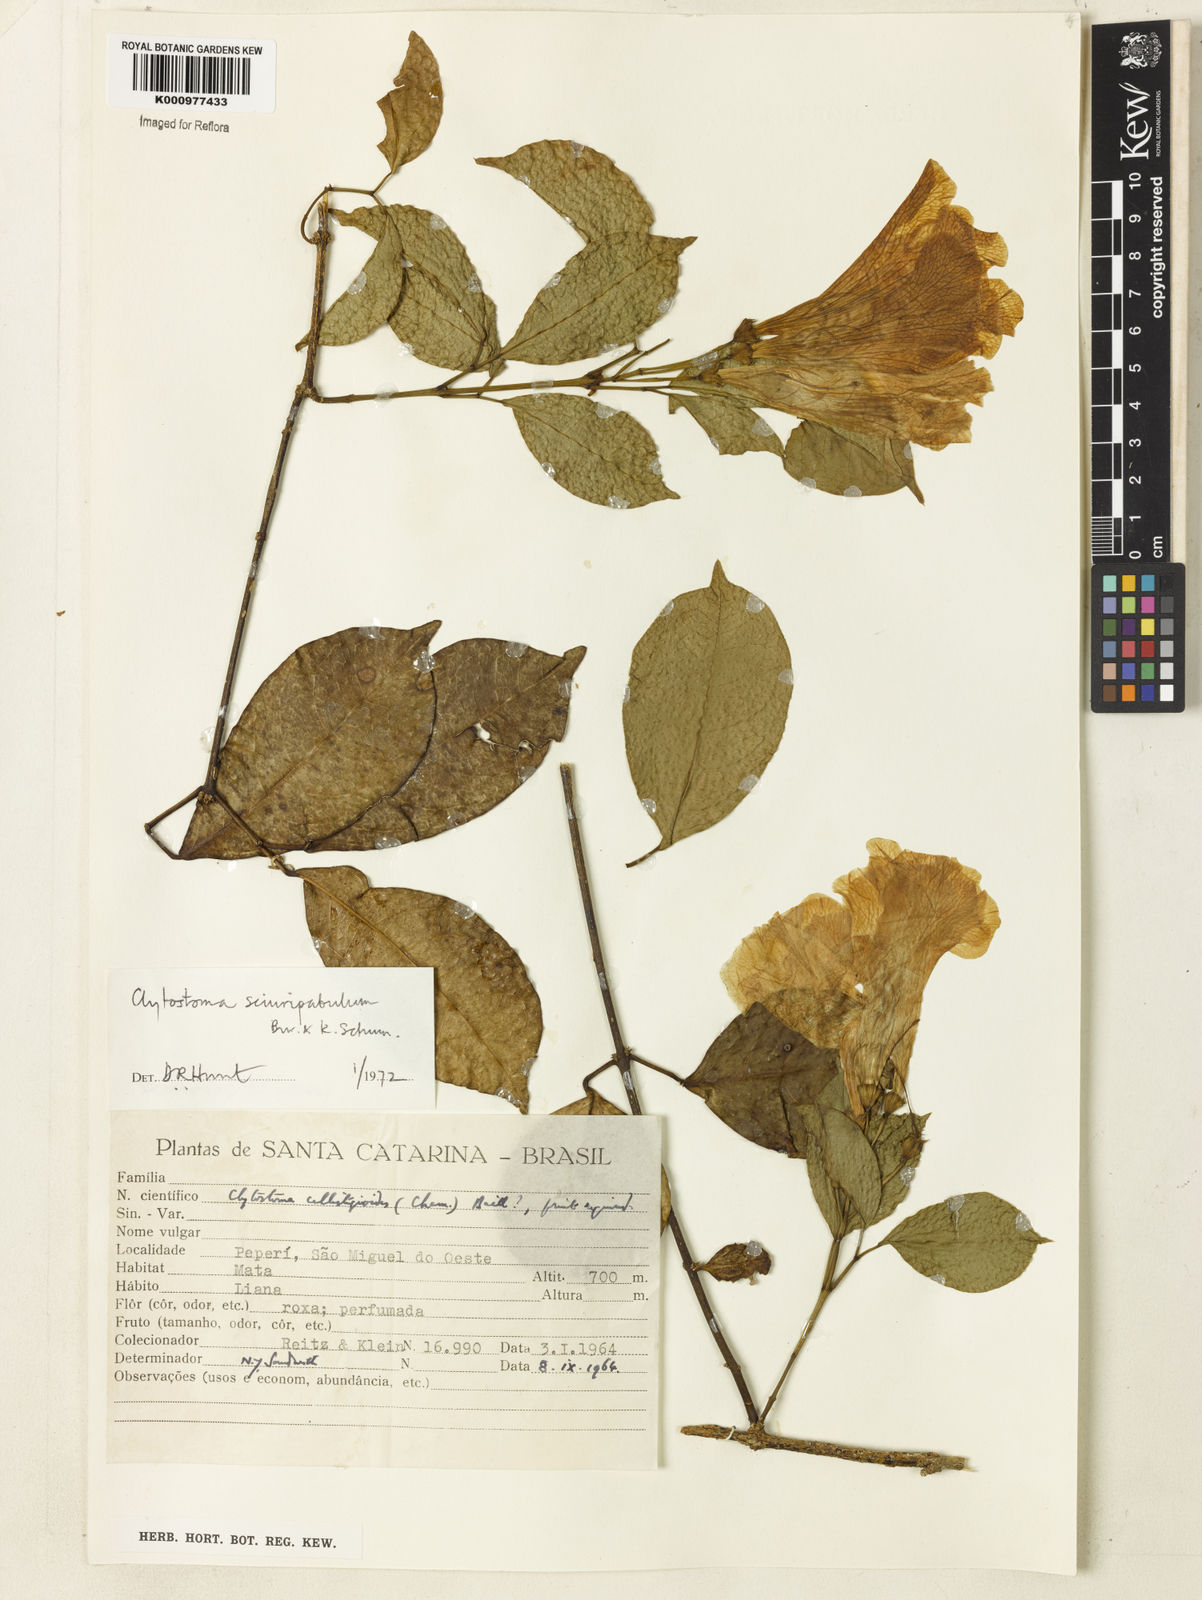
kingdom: Plantae
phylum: Tracheophyta
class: Magnoliopsida
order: Lamiales
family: Bignoniaceae
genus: Bignonia
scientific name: Bignonia
